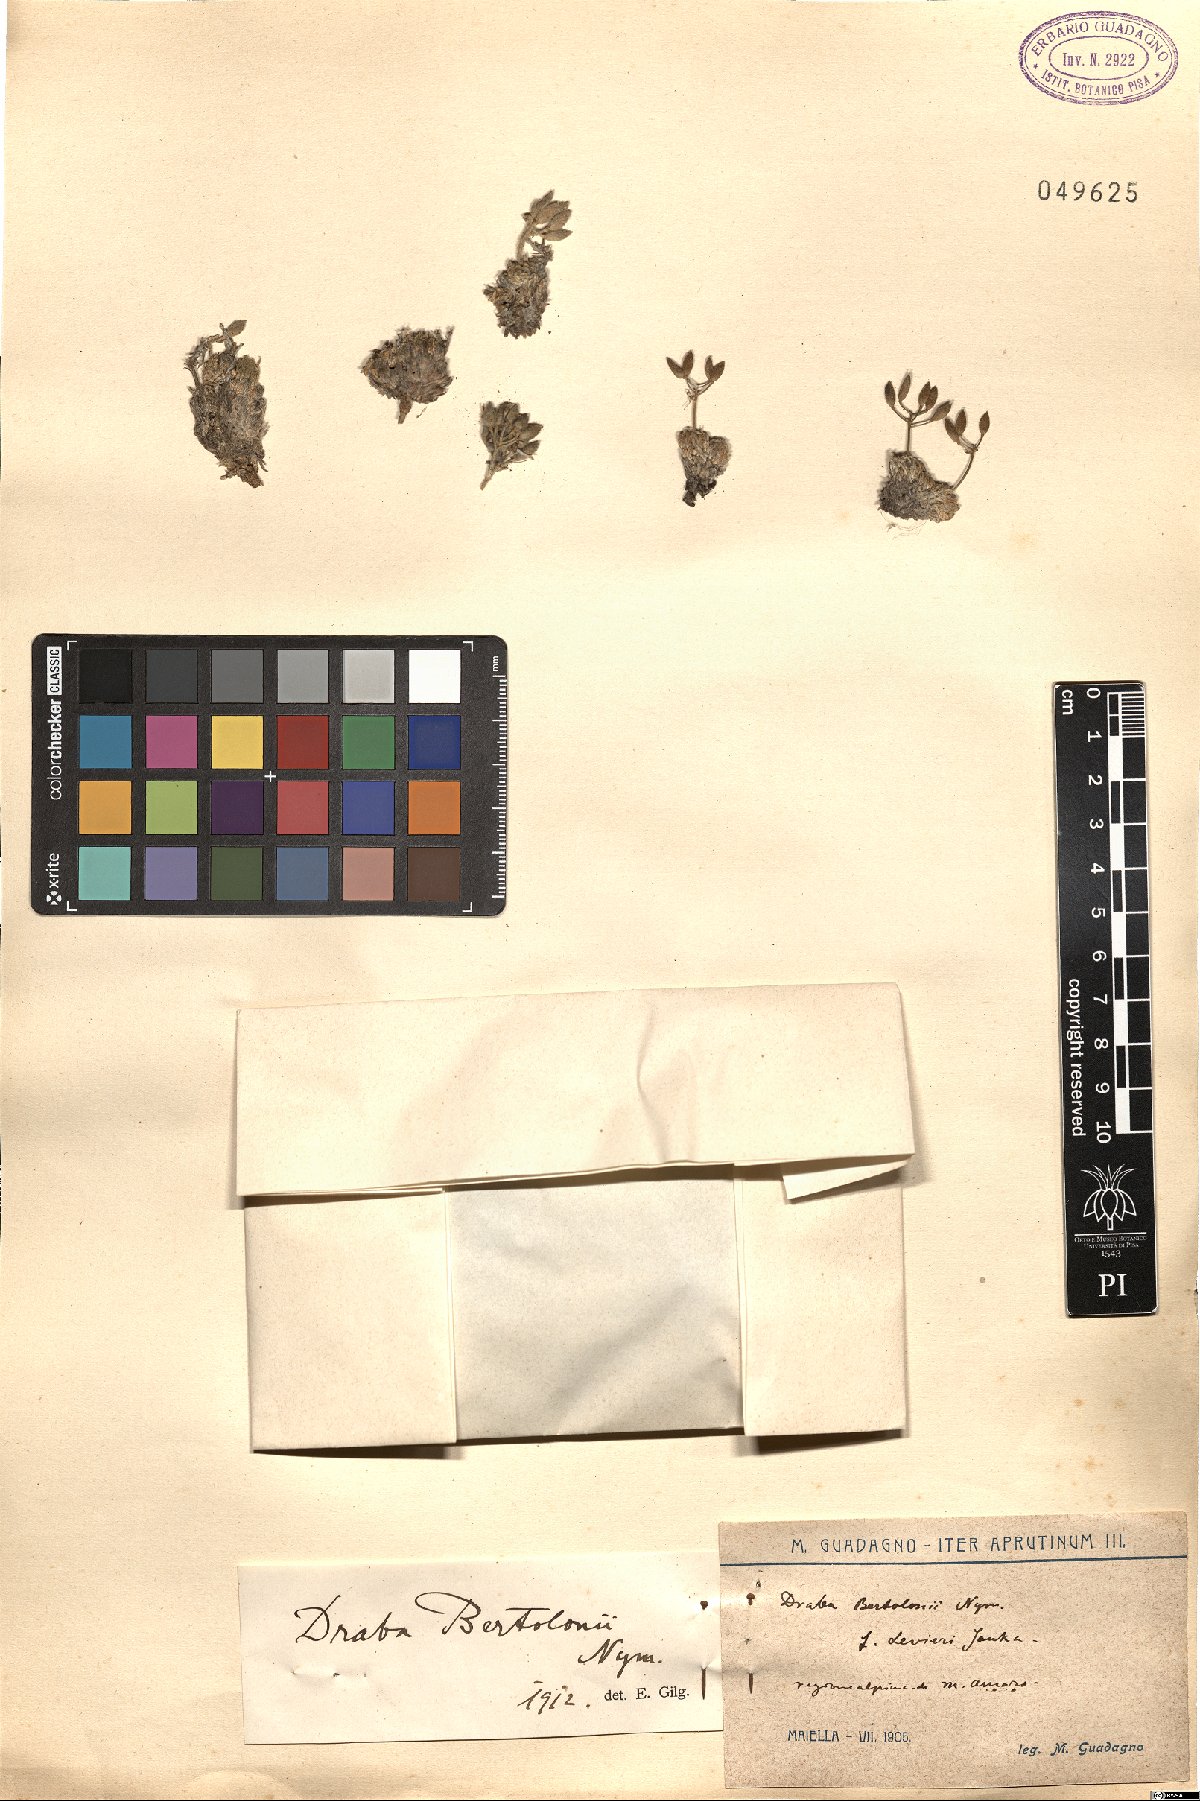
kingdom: Plantae
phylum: Tracheophyta
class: Magnoliopsida
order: Brassicales
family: Brassicaceae
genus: Draba
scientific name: Draba aspera
